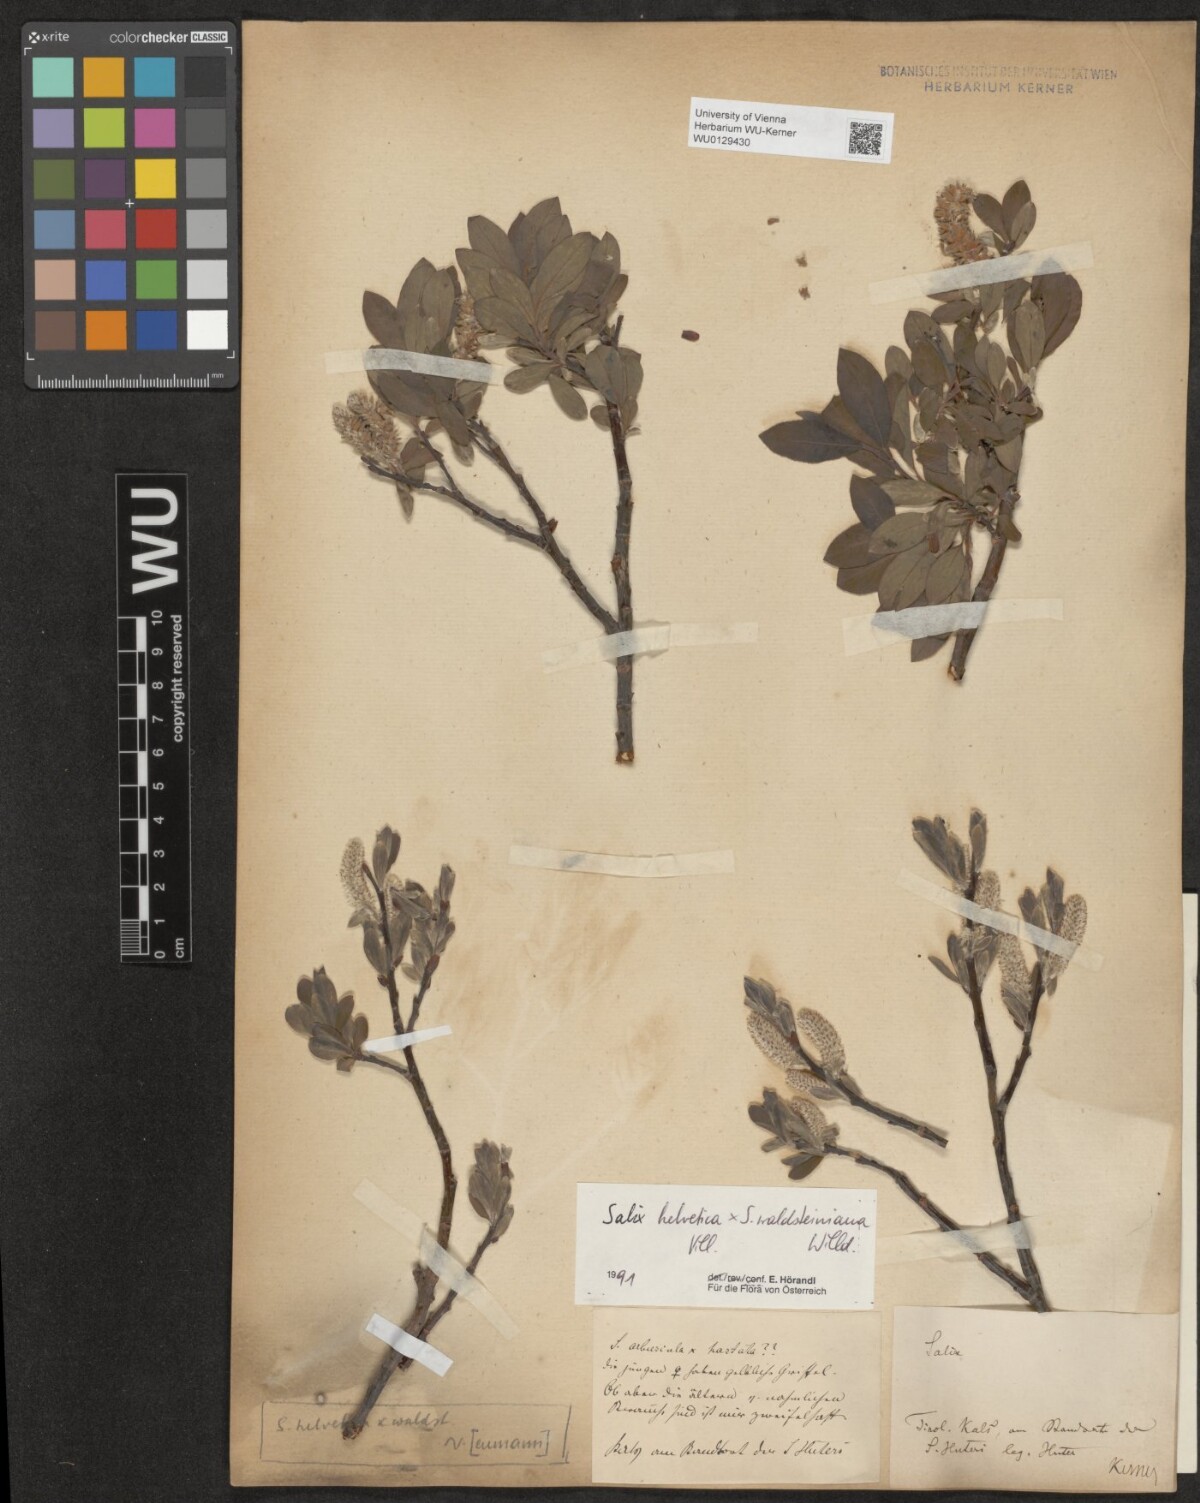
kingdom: Plantae
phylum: Tracheophyta
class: Magnoliopsida
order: Malpighiales
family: Salicaceae
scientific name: Salicaceae
